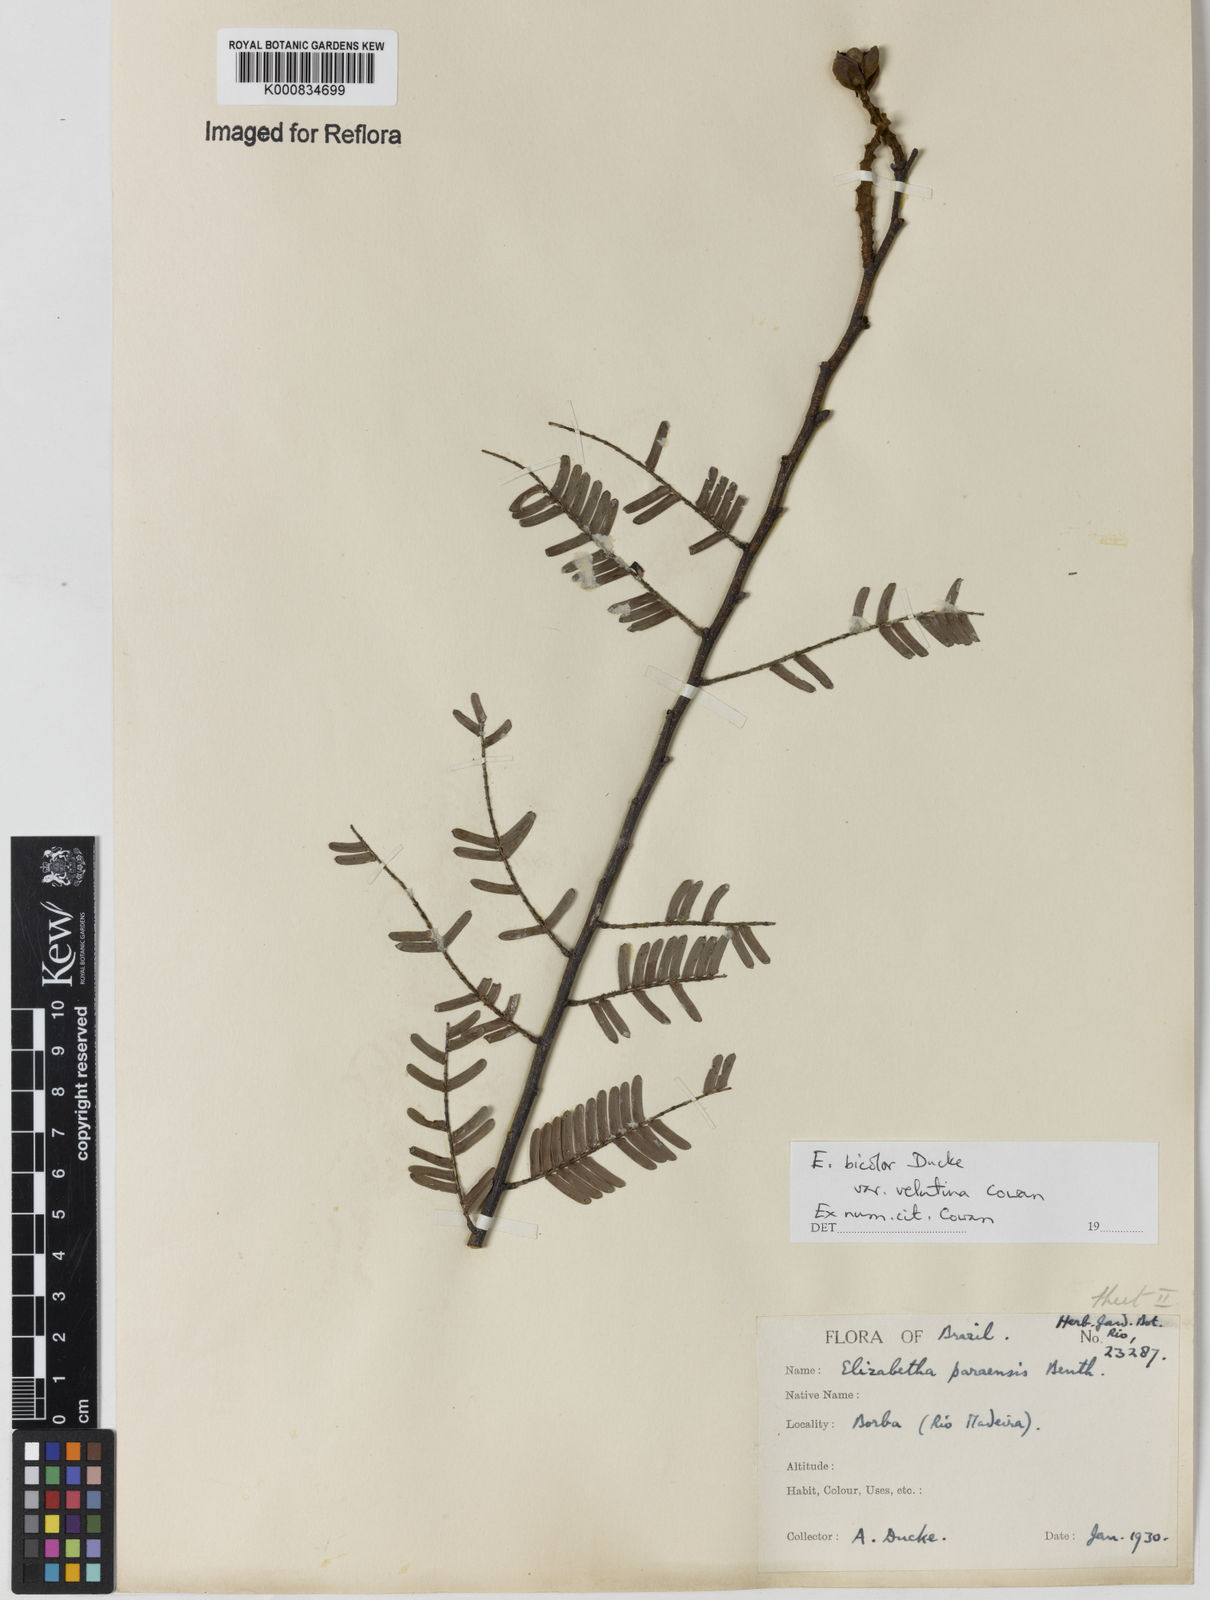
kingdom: Plantae
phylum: Tracheophyta
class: Magnoliopsida
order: Fabales
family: Fabaceae
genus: Paloue
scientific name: Paloue bicolor
